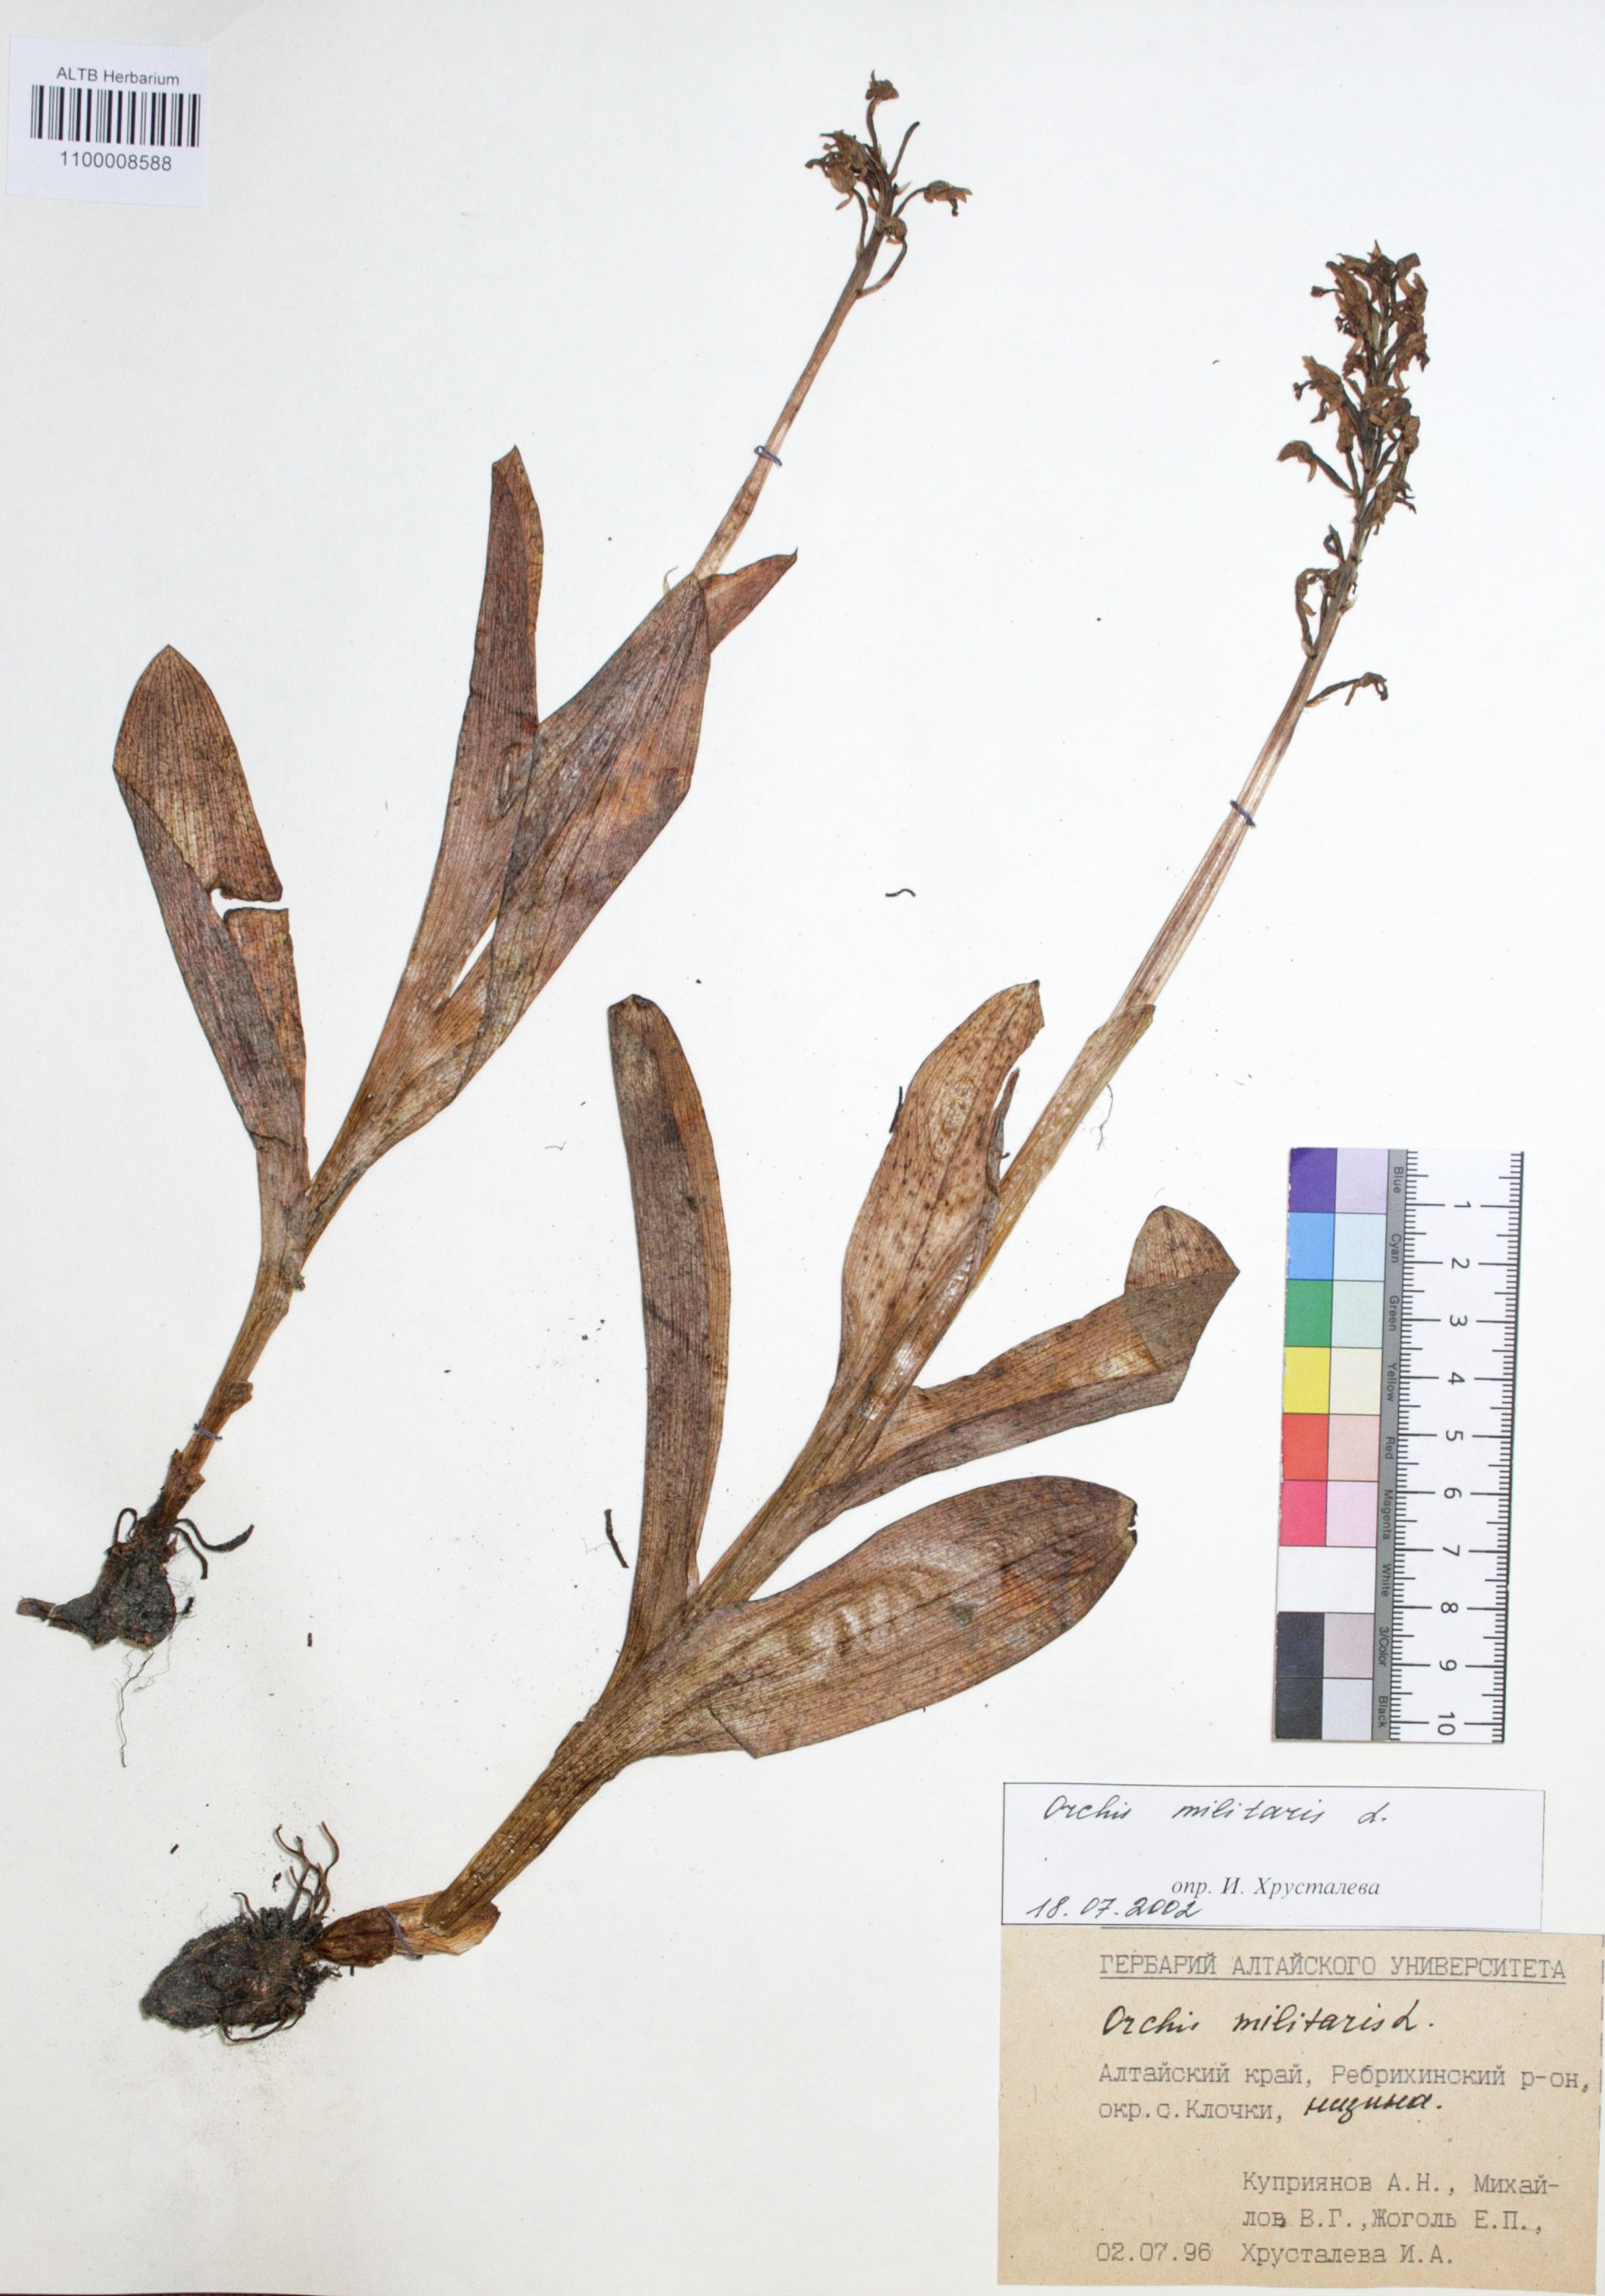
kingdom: Plantae
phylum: Tracheophyta
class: Liliopsida
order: Asparagales
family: Orchidaceae
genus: Hemipilia
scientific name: Hemipilia cucullata
